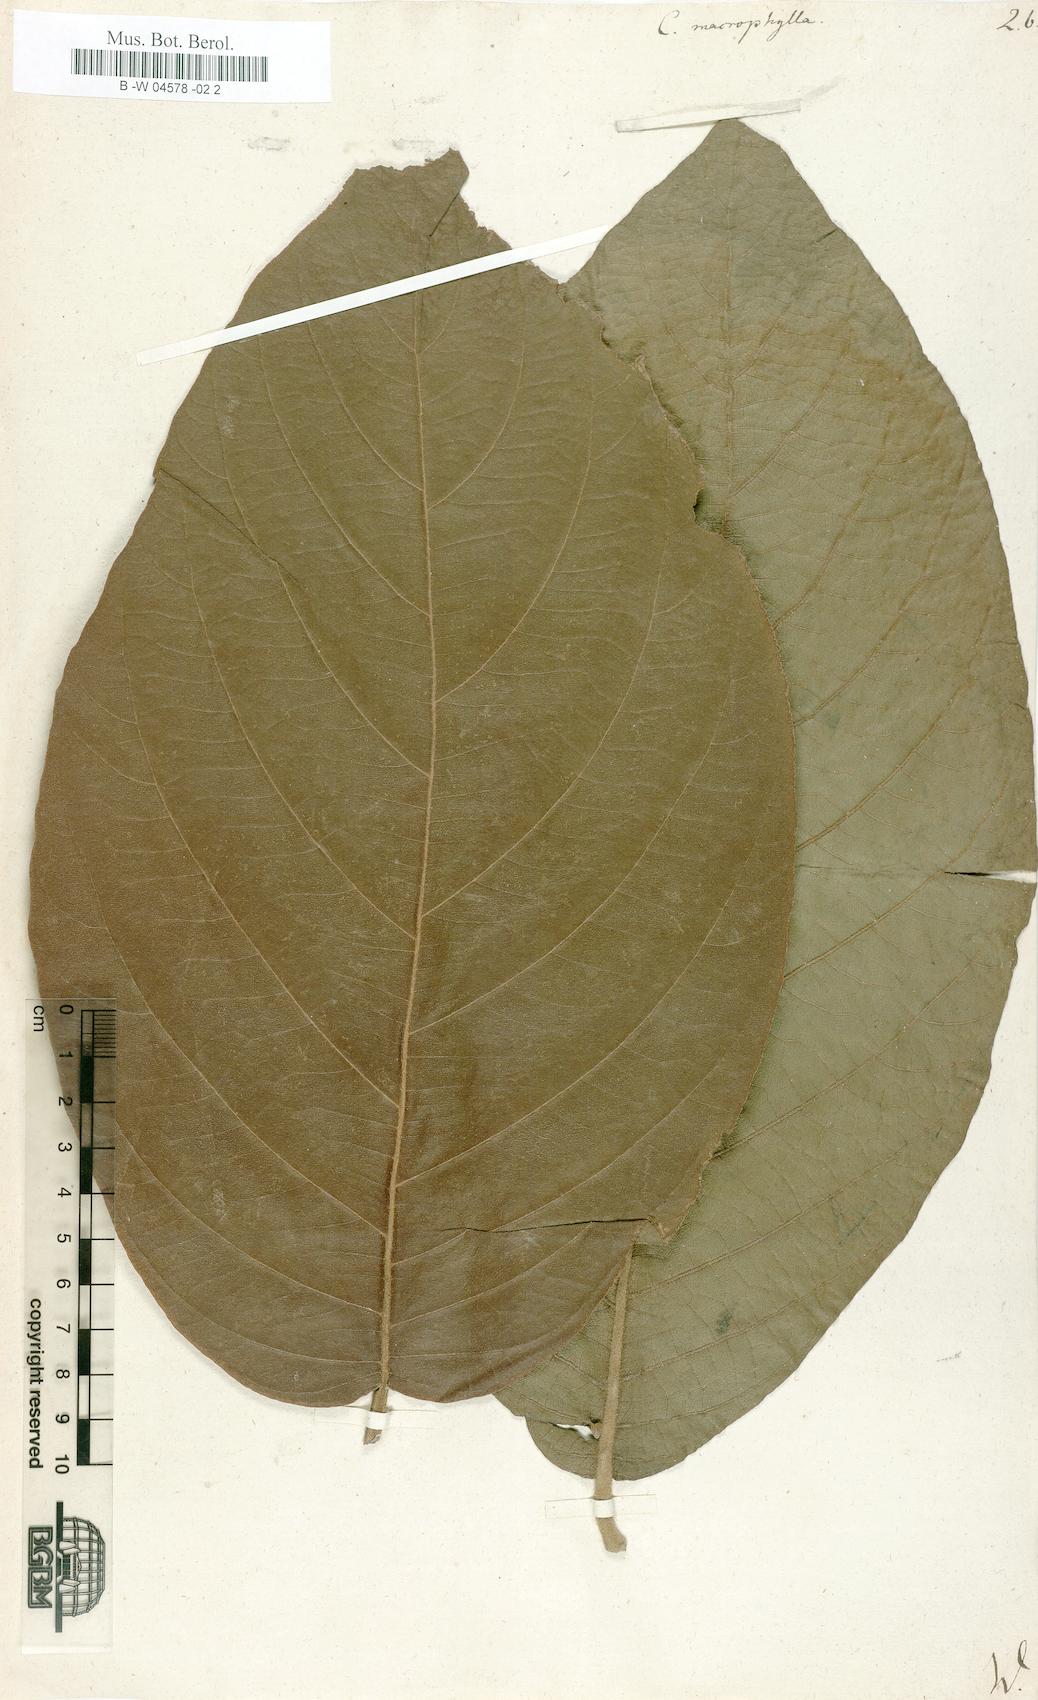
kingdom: Plantae
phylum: Tracheophyta
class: Magnoliopsida
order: Boraginales
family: Cordiaceae
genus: Cordia
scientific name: Cordia macrophylla
